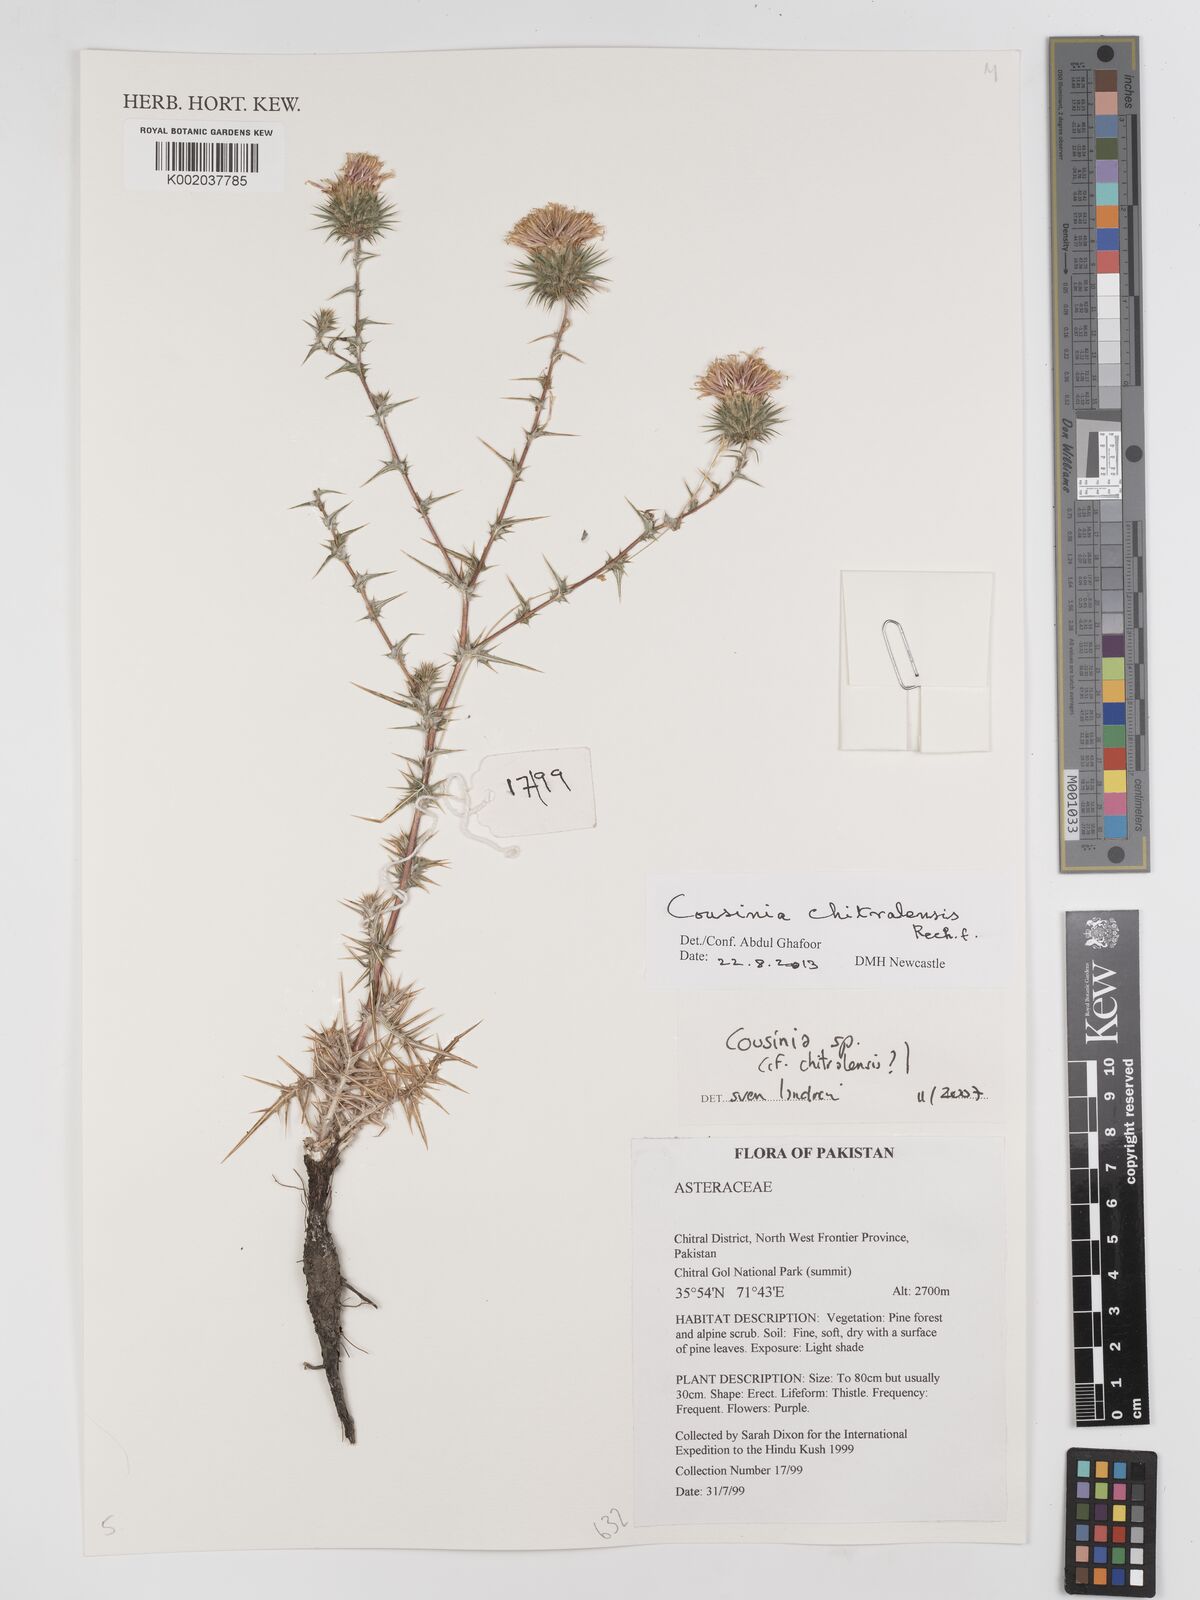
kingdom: Plantae
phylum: Tracheophyta
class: Magnoliopsida
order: Asterales
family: Asteraceae
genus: Cousinia
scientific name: Cousinia chitralensis
